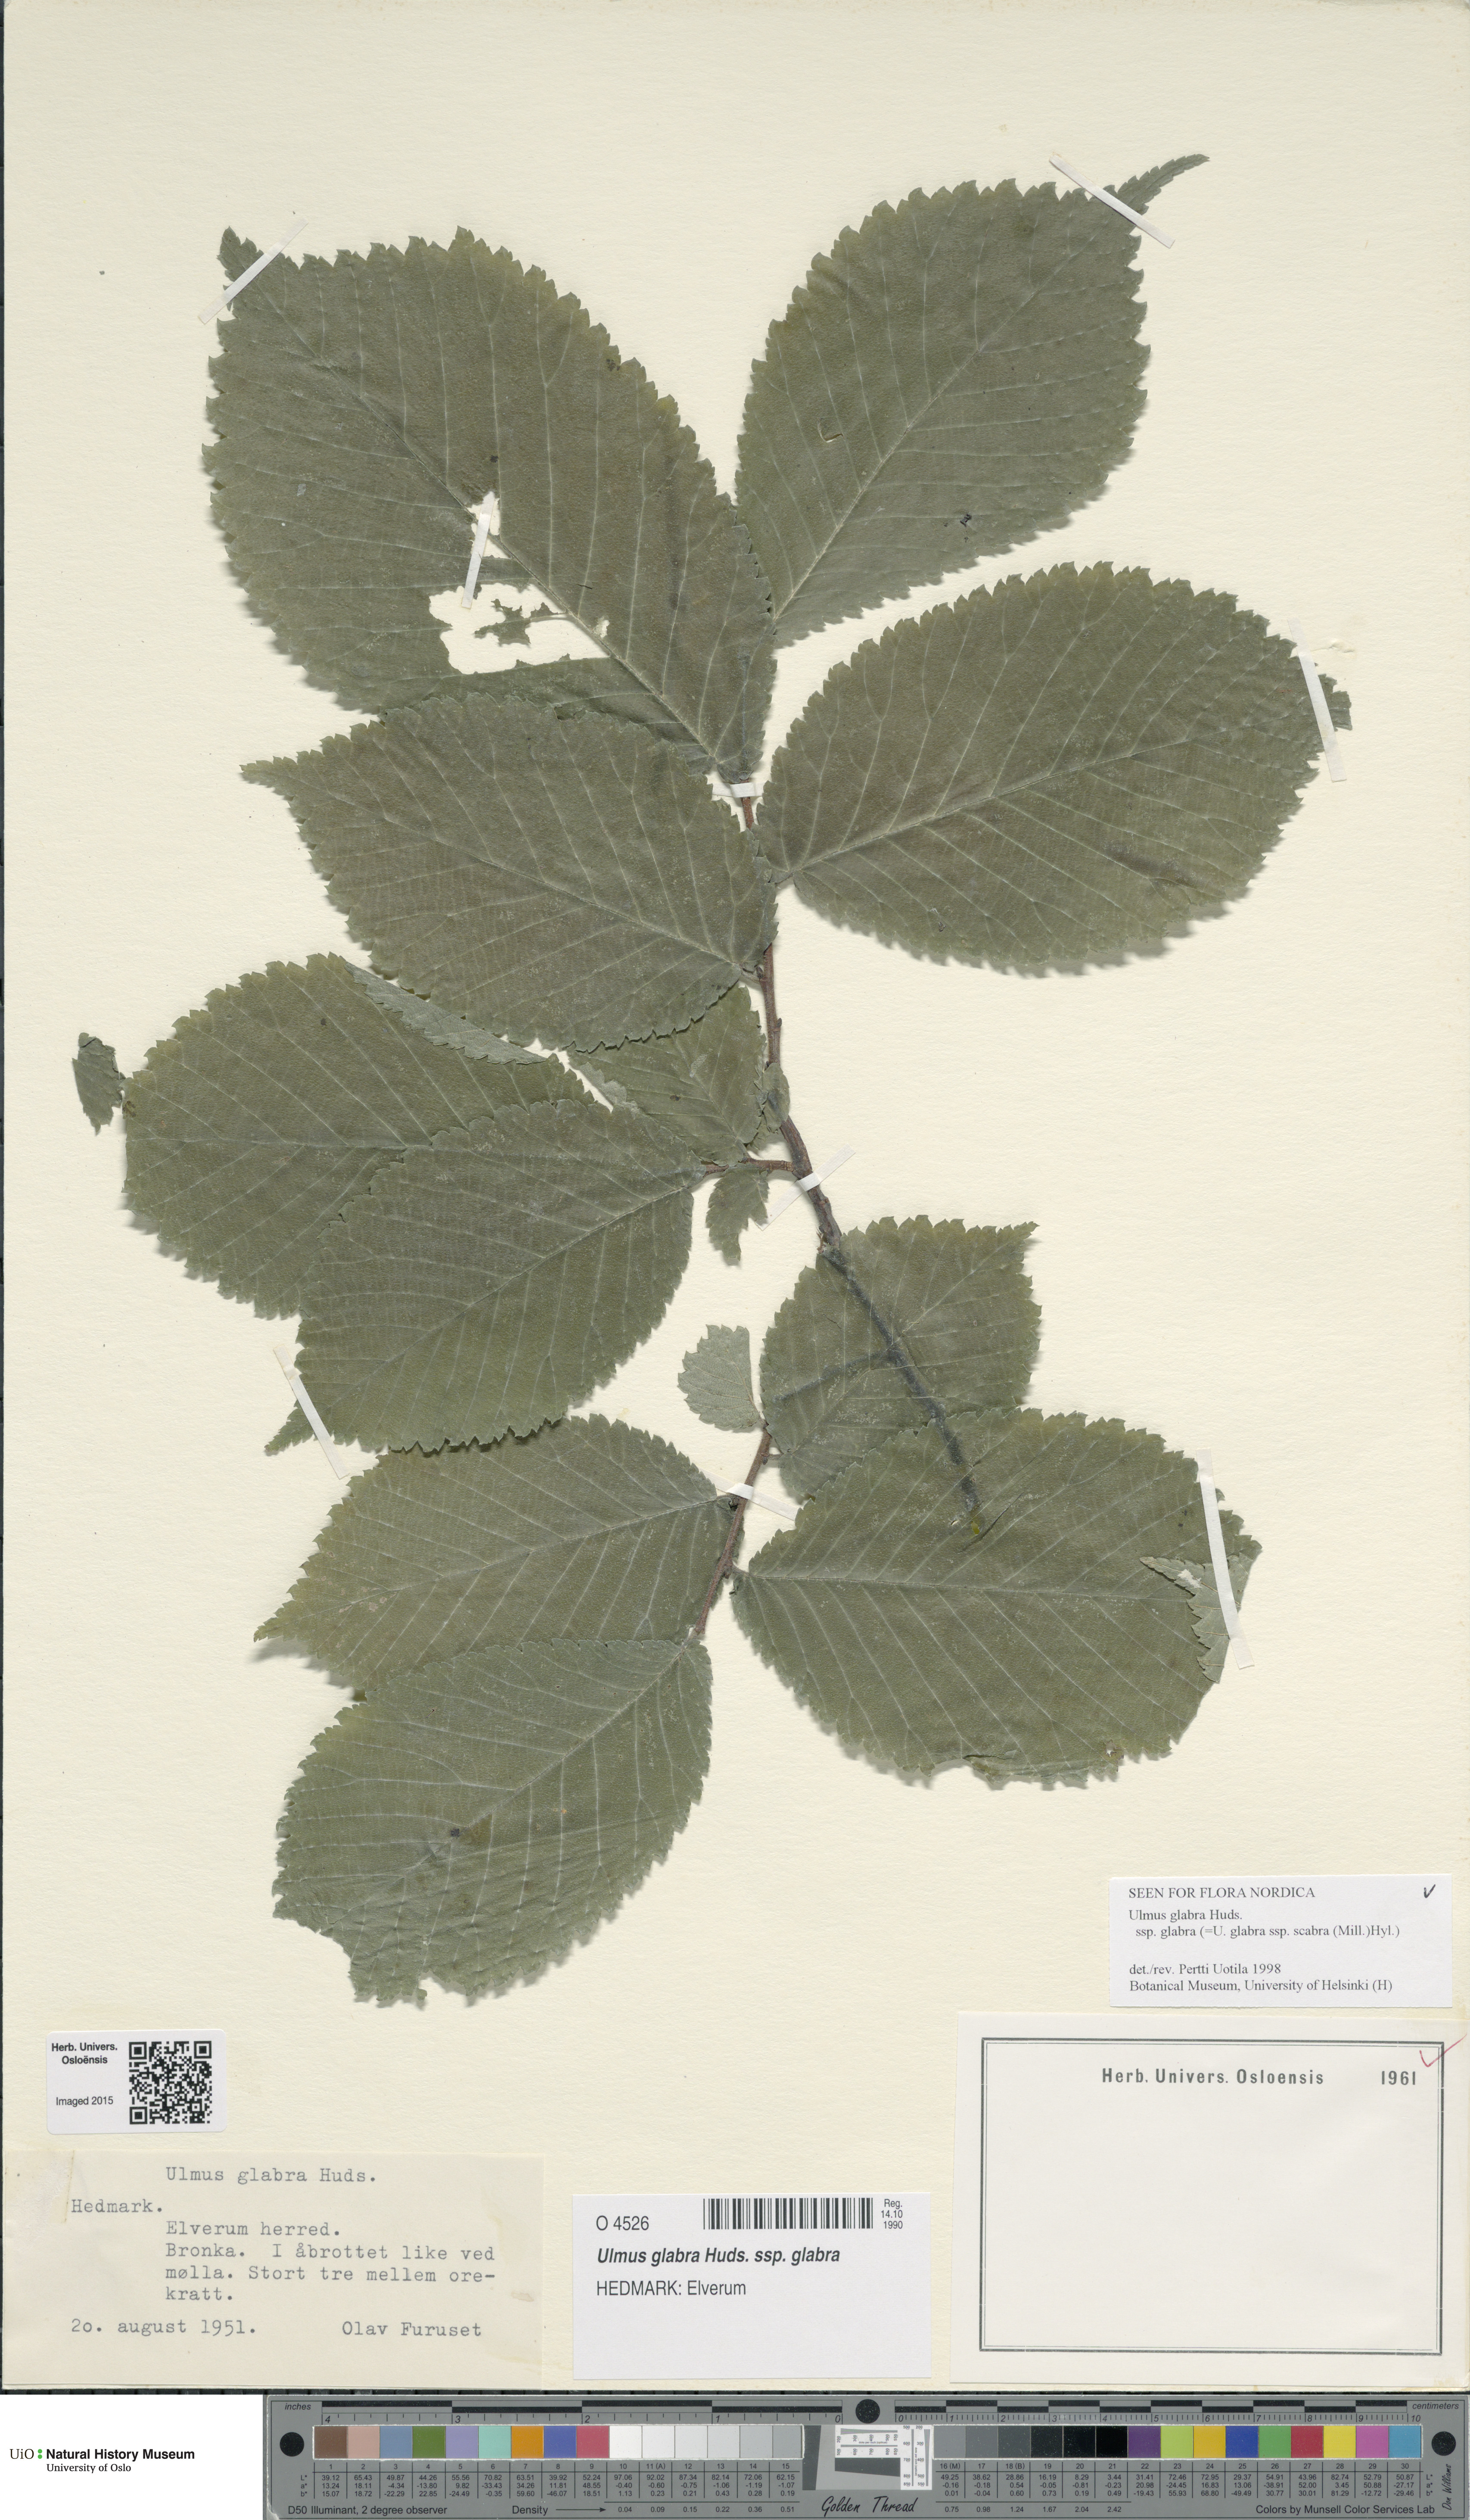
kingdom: Plantae
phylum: Tracheophyta
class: Magnoliopsida
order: Rosales
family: Ulmaceae
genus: Ulmus
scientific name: Ulmus glabra
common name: Wych elm
